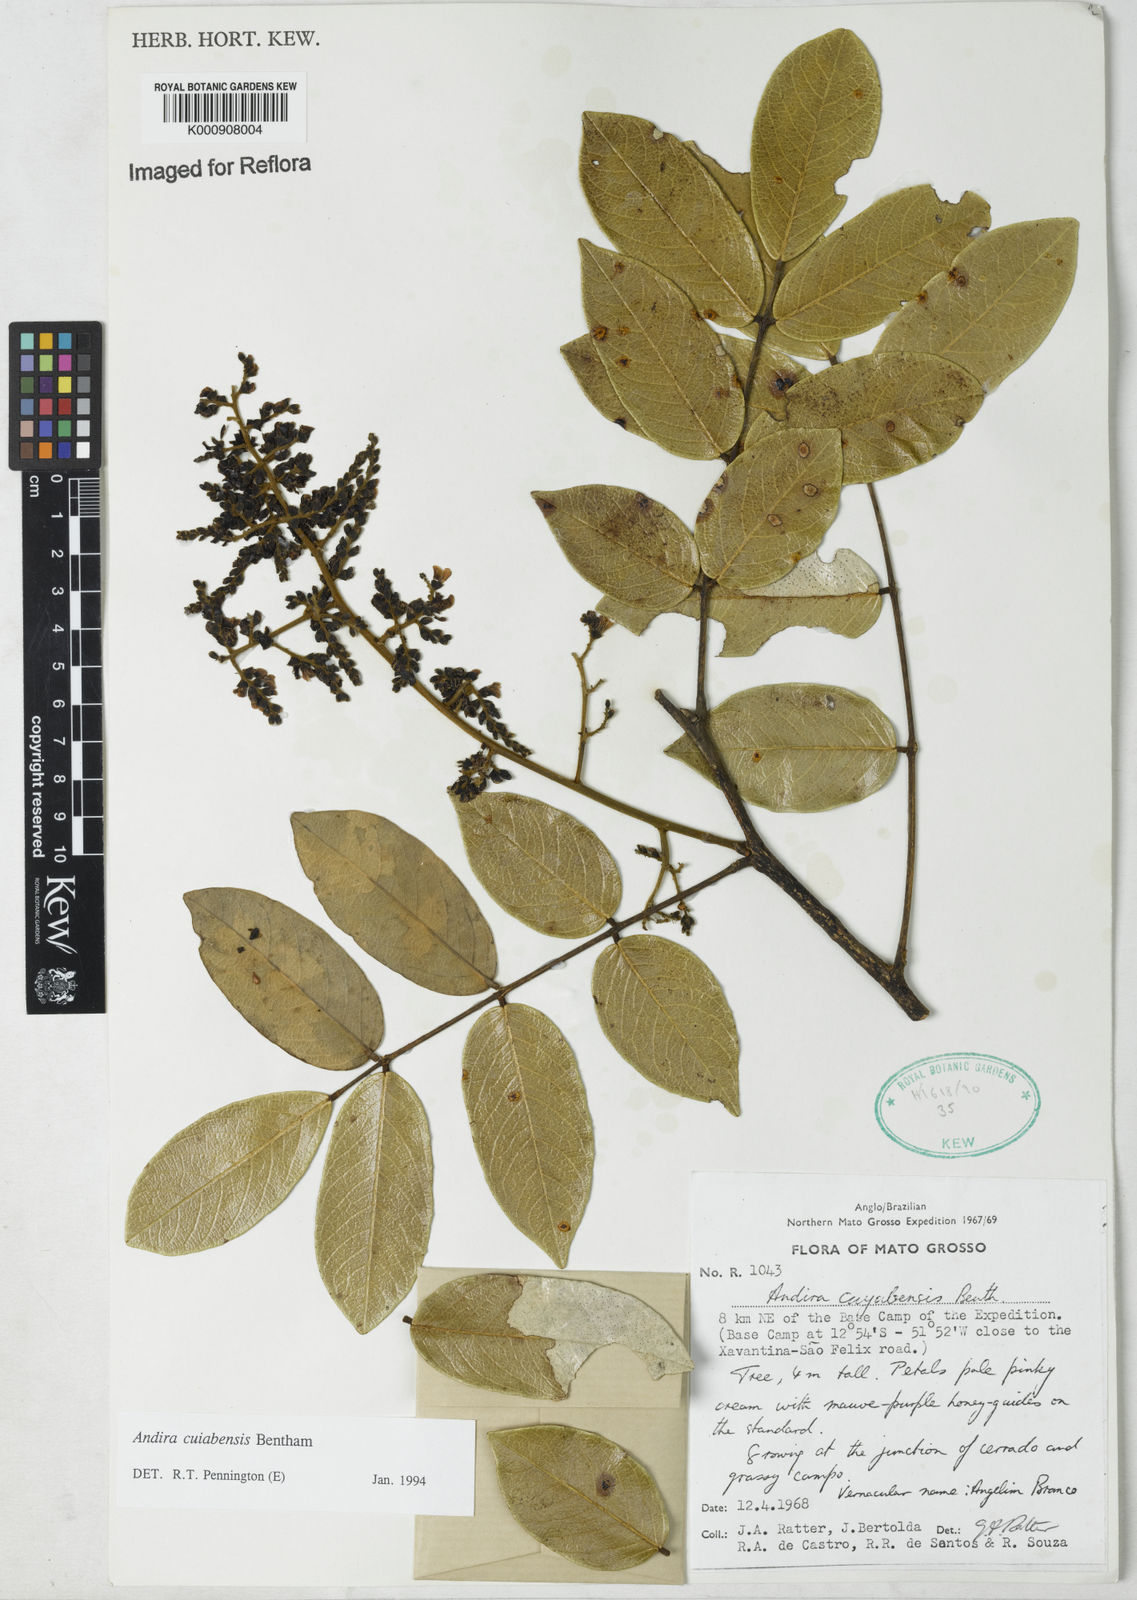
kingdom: Plantae
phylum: Tracheophyta
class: Magnoliopsida
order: Fabales
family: Fabaceae
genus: Andira
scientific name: Andira cujabensis
